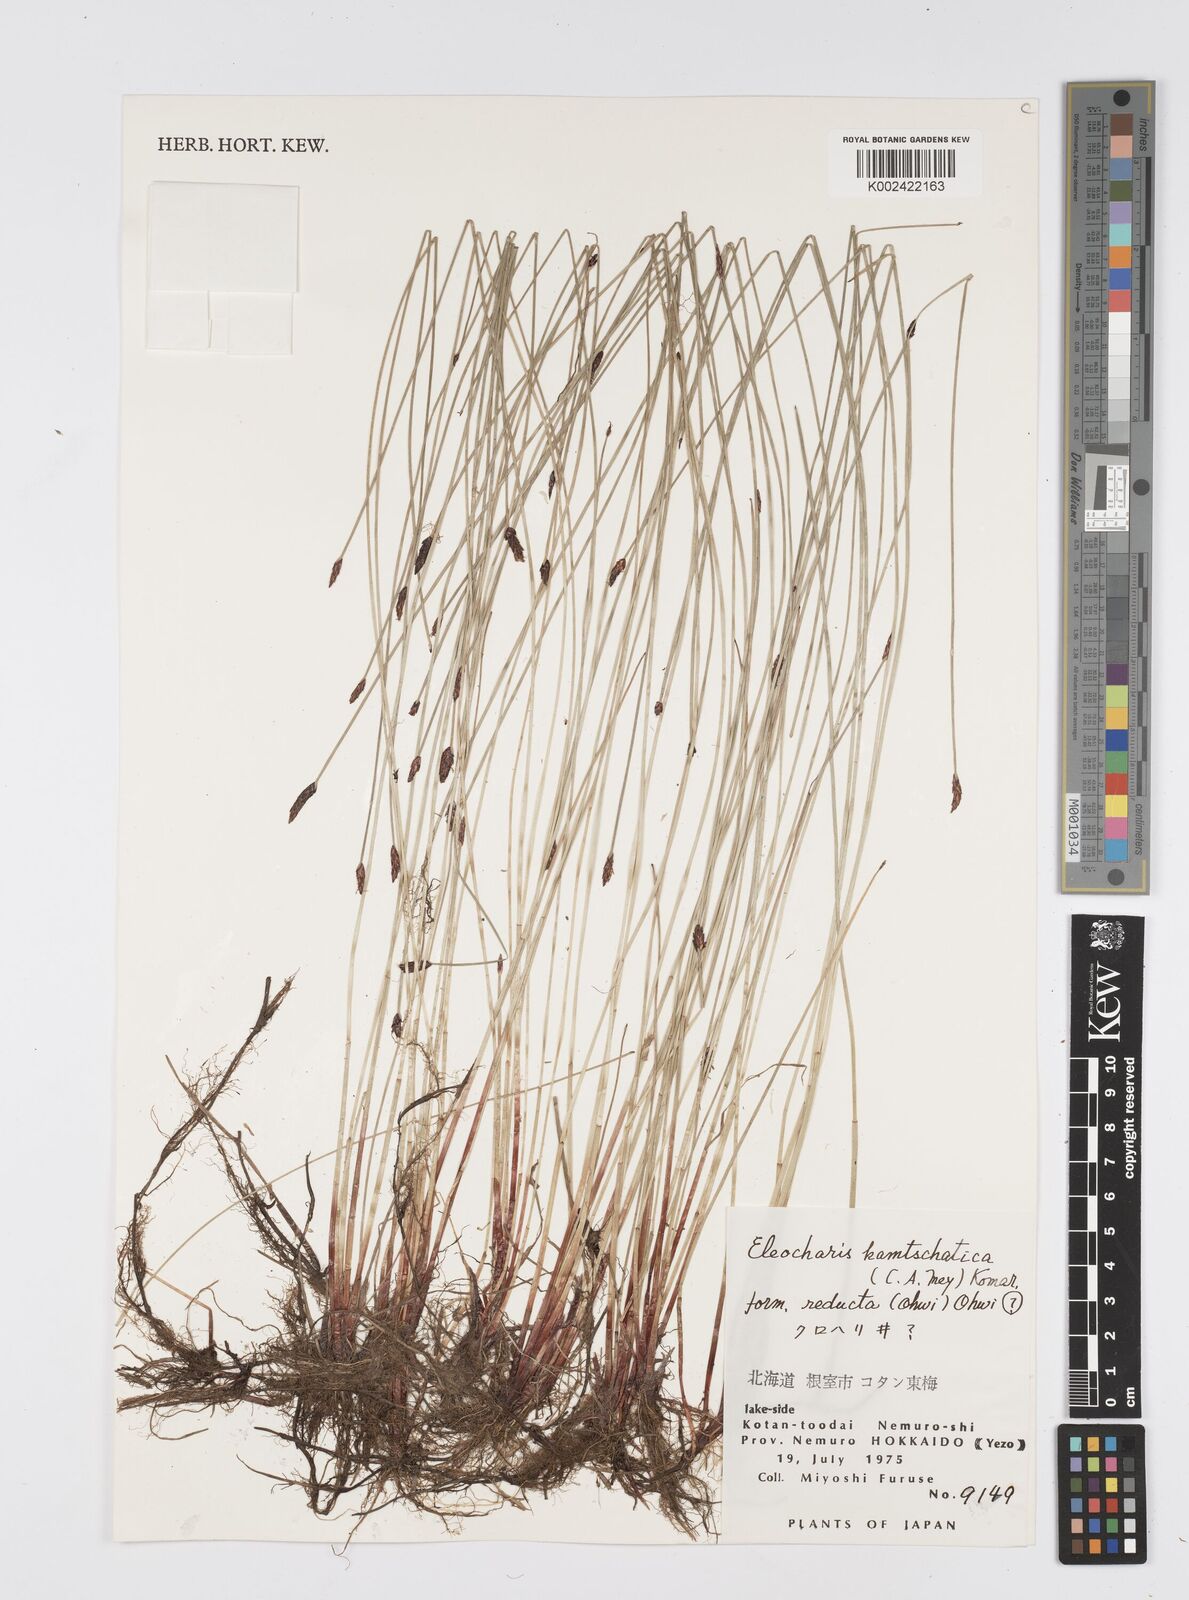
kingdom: Plantae
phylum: Tracheophyta
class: Liliopsida
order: Poales
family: Cyperaceae
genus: Eleocharis
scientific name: Eleocharis kamtschatica
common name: Kamchatka spikerush
